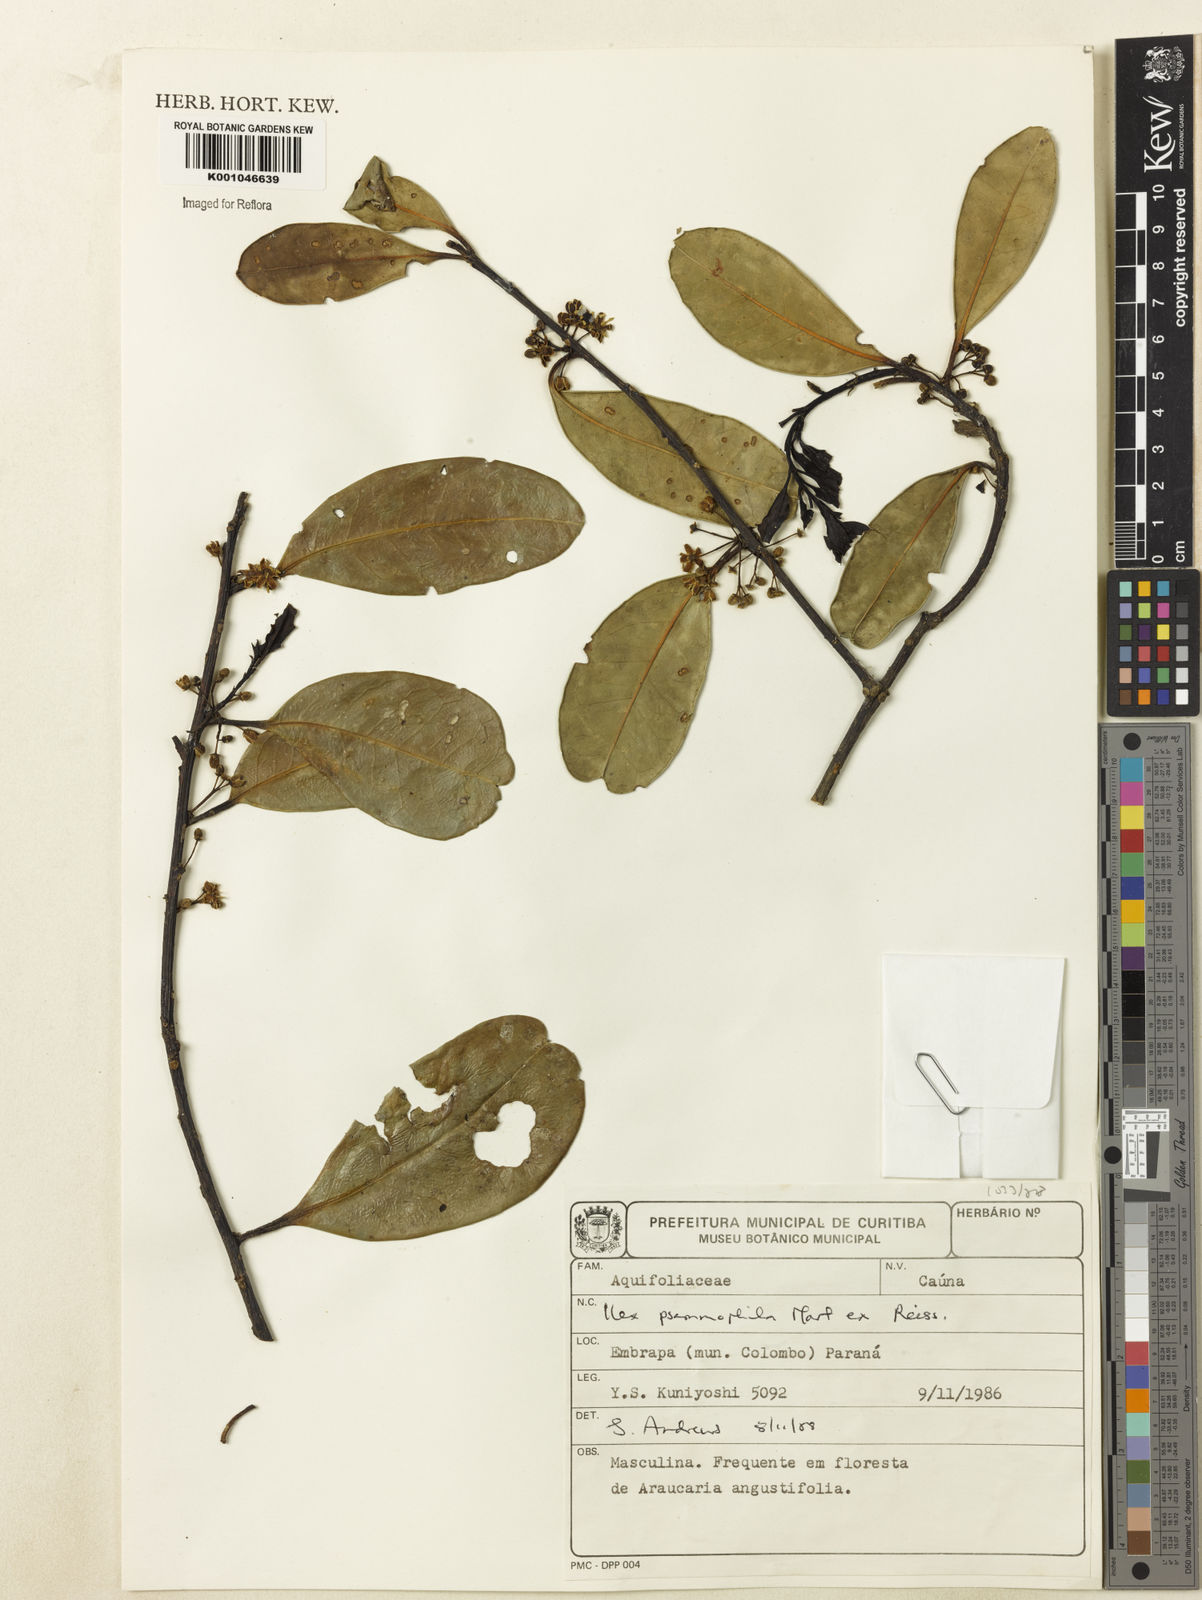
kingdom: Plantae
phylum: Tracheophyta
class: Magnoliopsida
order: Aquifoliales
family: Aquifoliaceae
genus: Ilex
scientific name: Ilex psammophila
